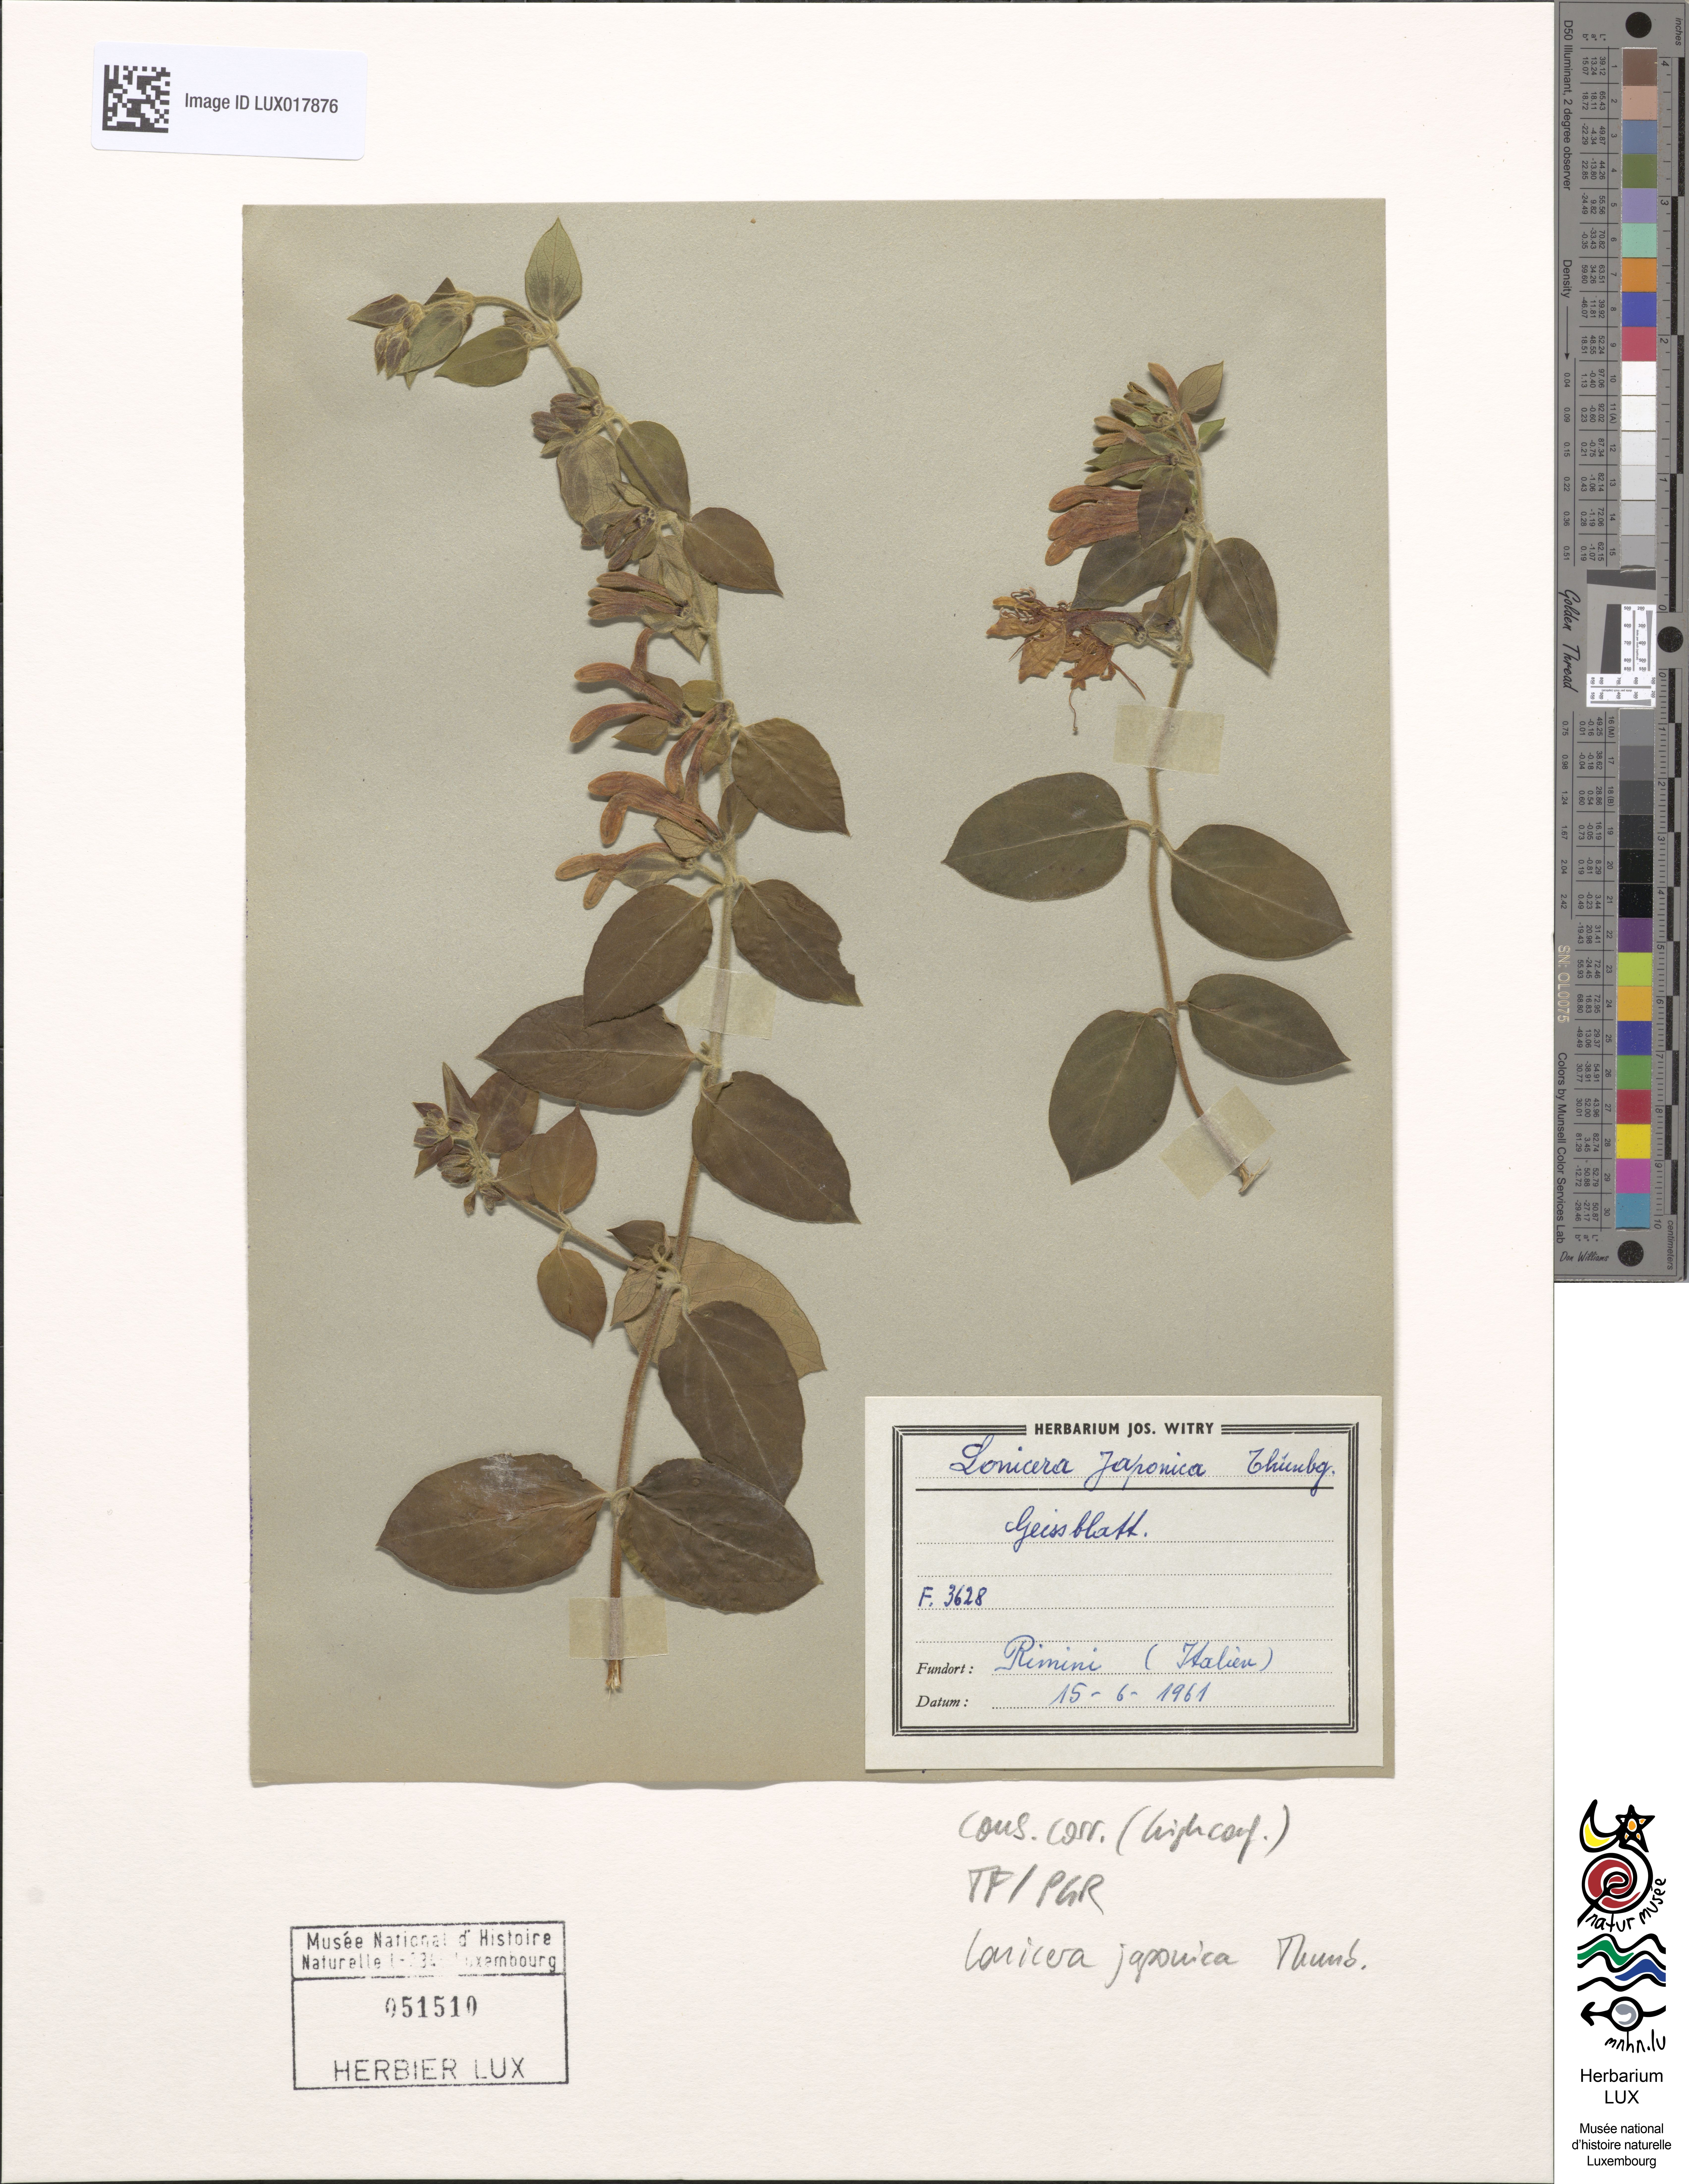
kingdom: Plantae
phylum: Tracheophyta
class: Magnoliopsida
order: Dipsacales
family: Caprifoliaceae
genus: Lonicera
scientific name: Lonicera japonica
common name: Japanese honeysuckle
